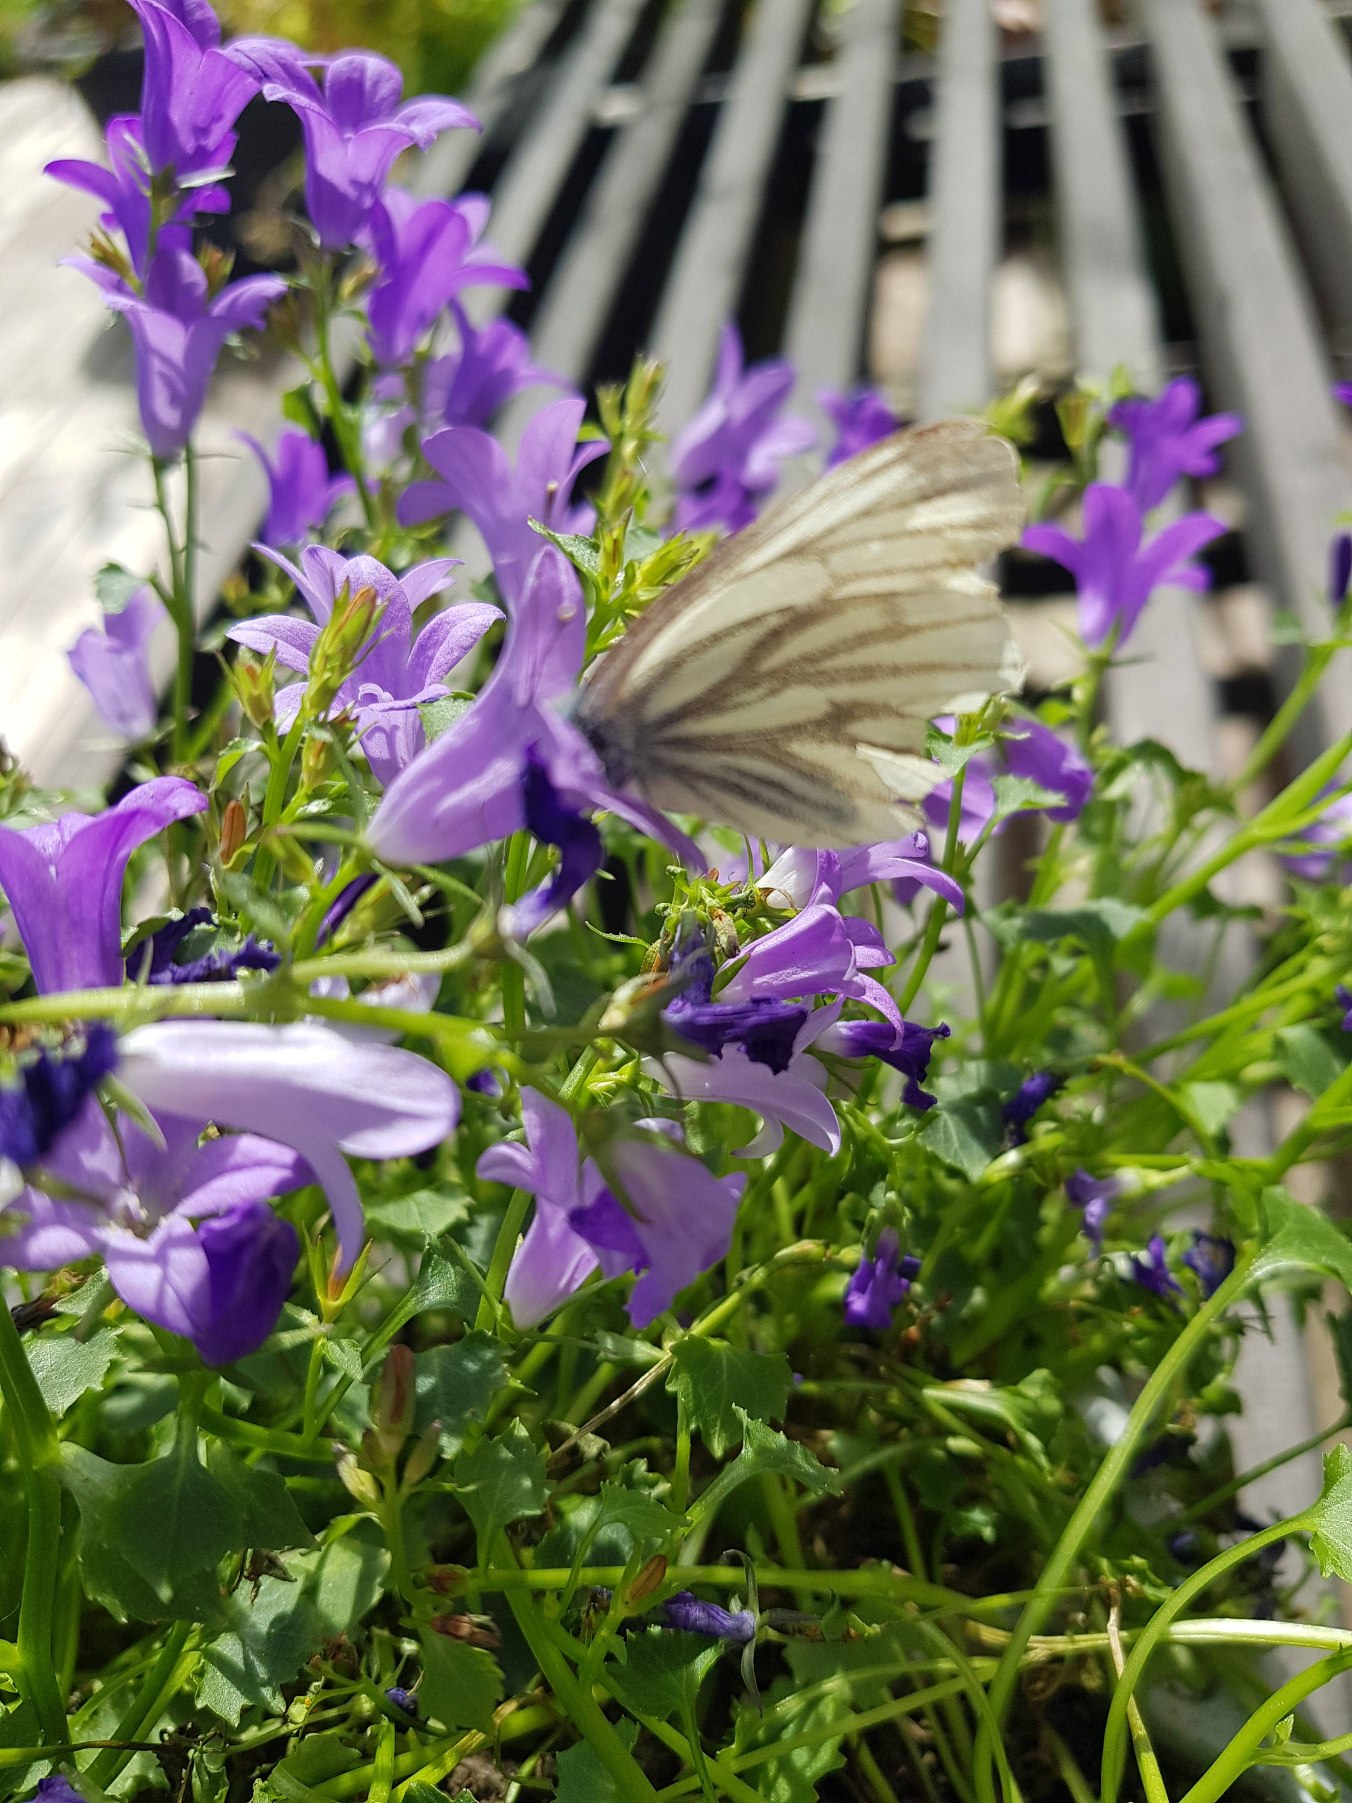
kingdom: Animalia
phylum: Arthropoda
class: Insecta
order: Lepidoptera
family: Pieridae
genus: Pieris
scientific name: Pieris napi
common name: Grønåret kålsommerfugl
